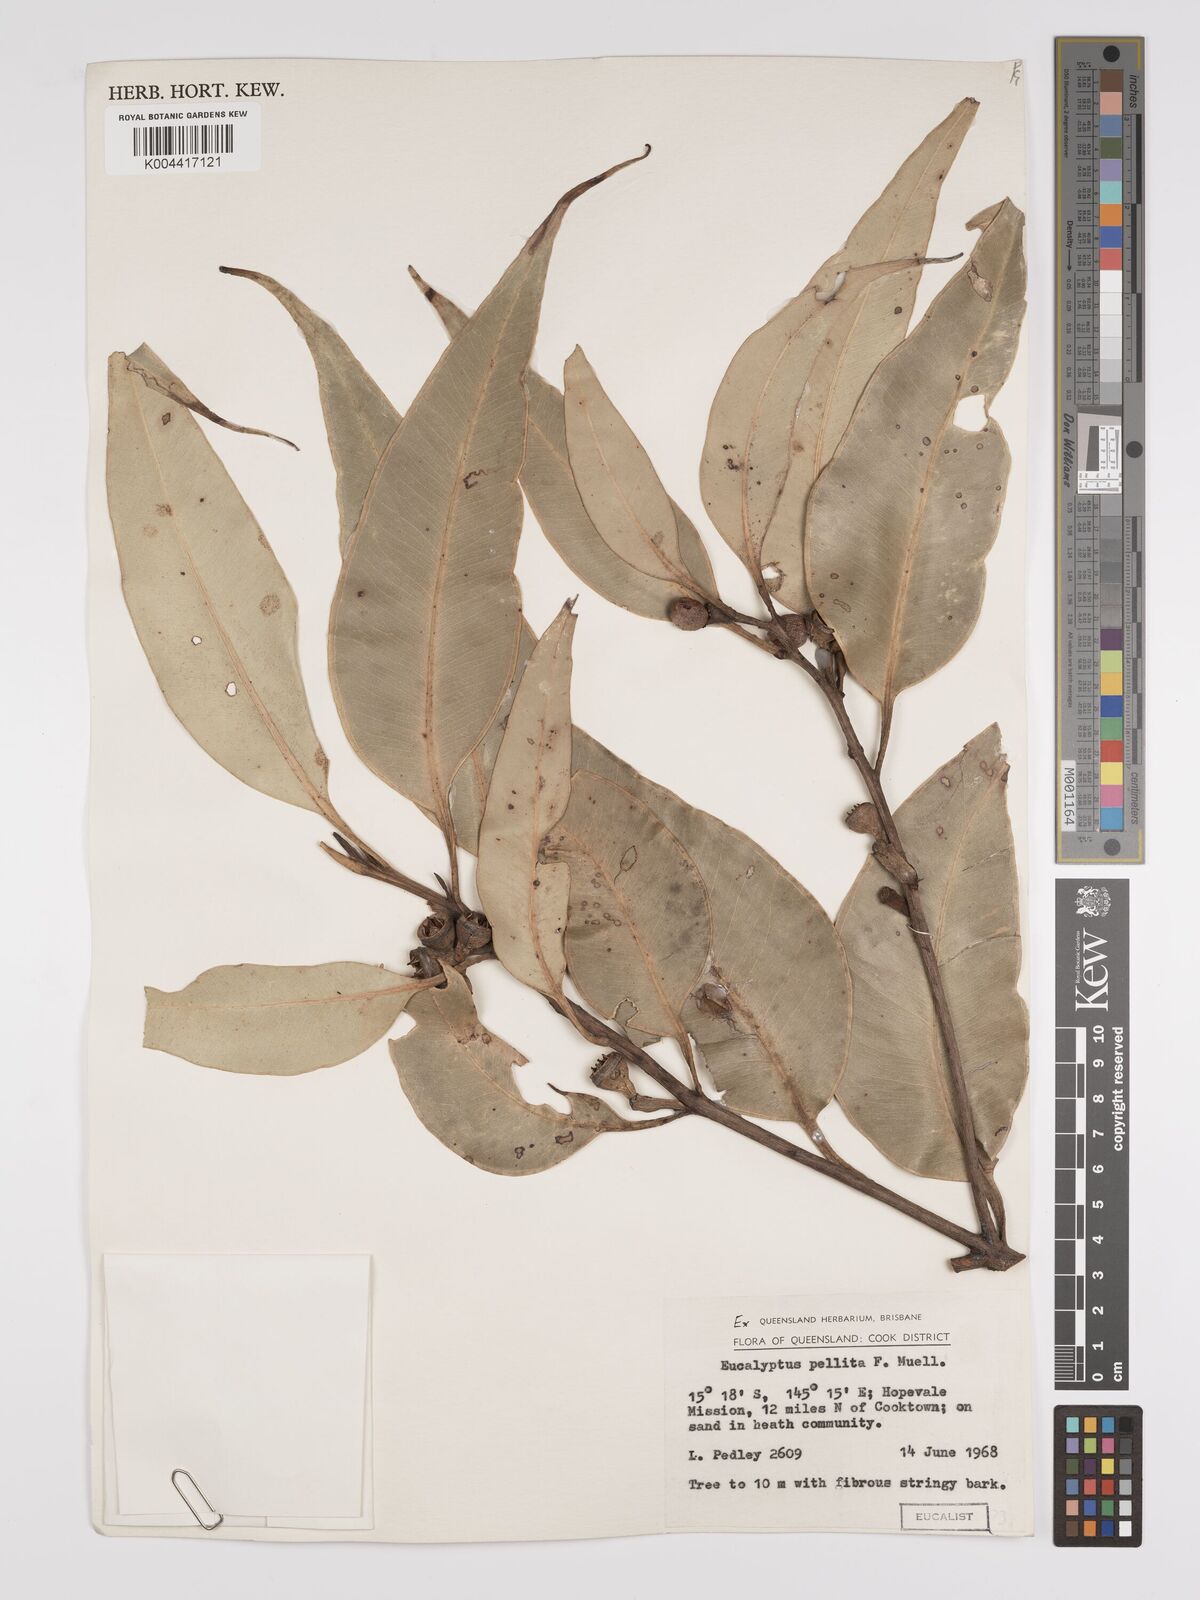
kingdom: Plantae
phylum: Tracheophyta
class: Magnoliopsida
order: Myrtales
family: Myrtaceae
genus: Eucalyptus
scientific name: Eucalyptus pellita
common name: Large-fruited-red-mahogany
